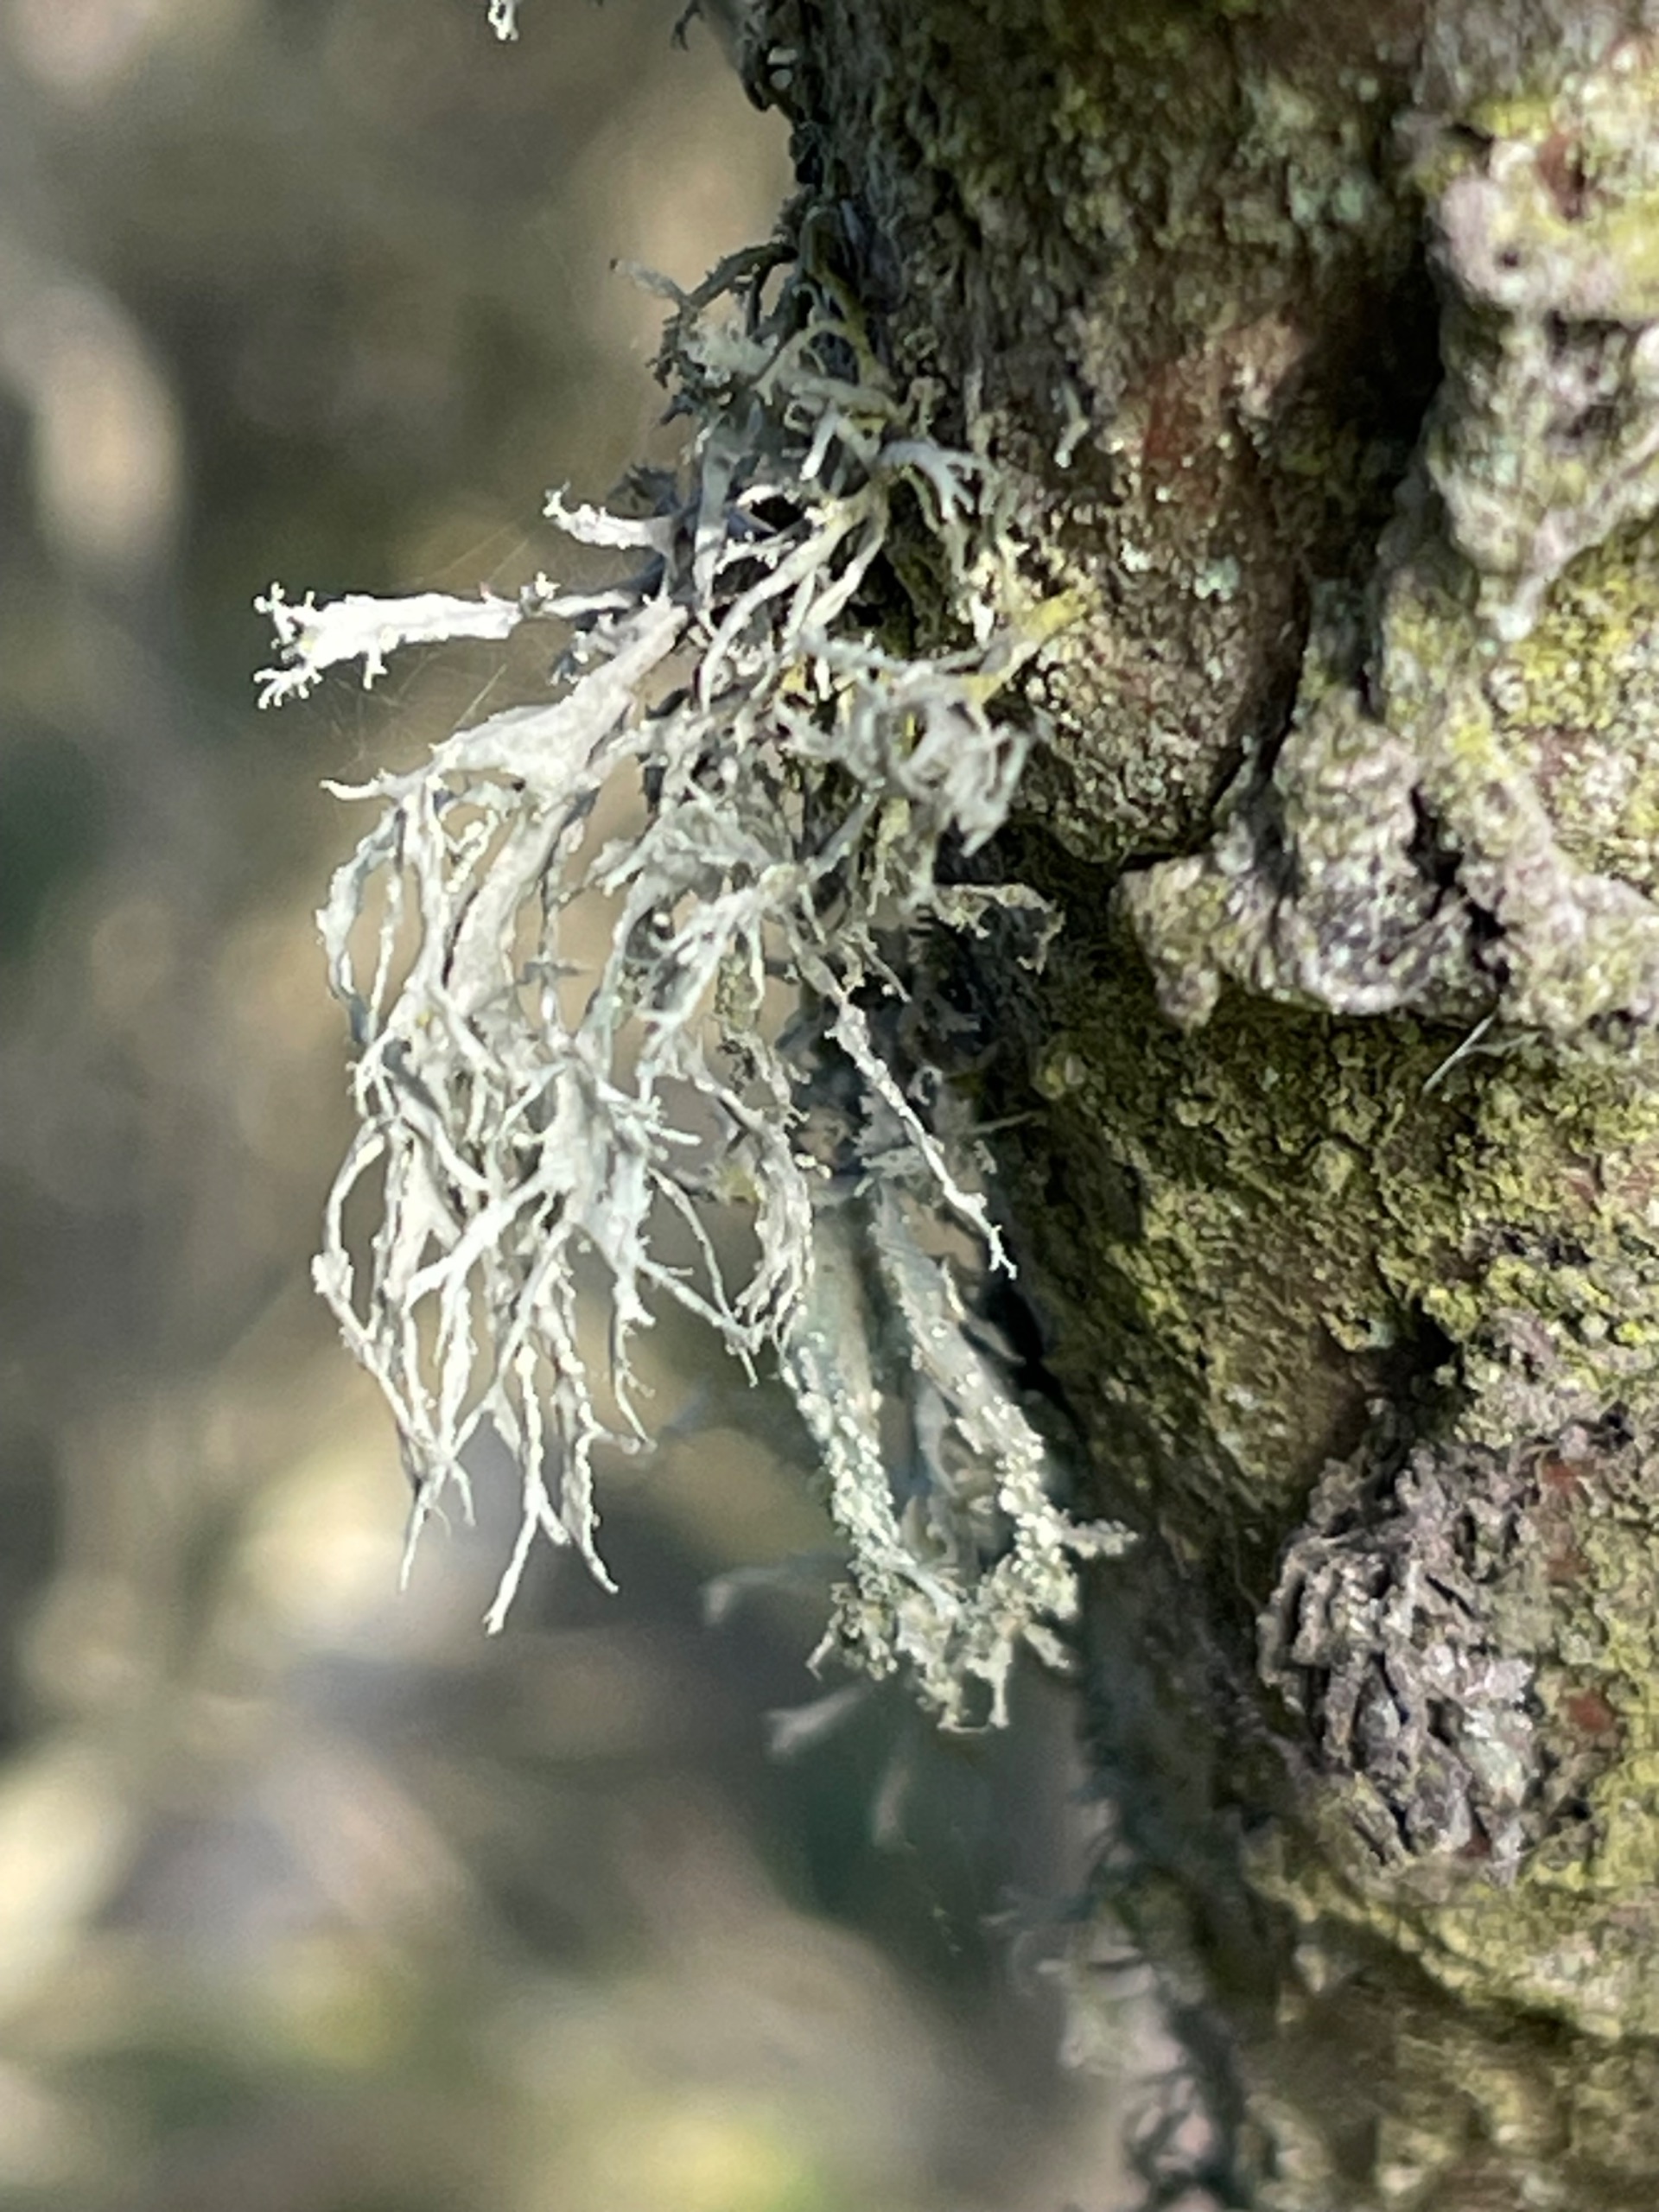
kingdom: Fungi
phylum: Ascomycota
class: Lecanoromycetes
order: Lecanorales
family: Ramalinaceae
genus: Ramalina
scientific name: Ramalina farinacea
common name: Melet grenlav
